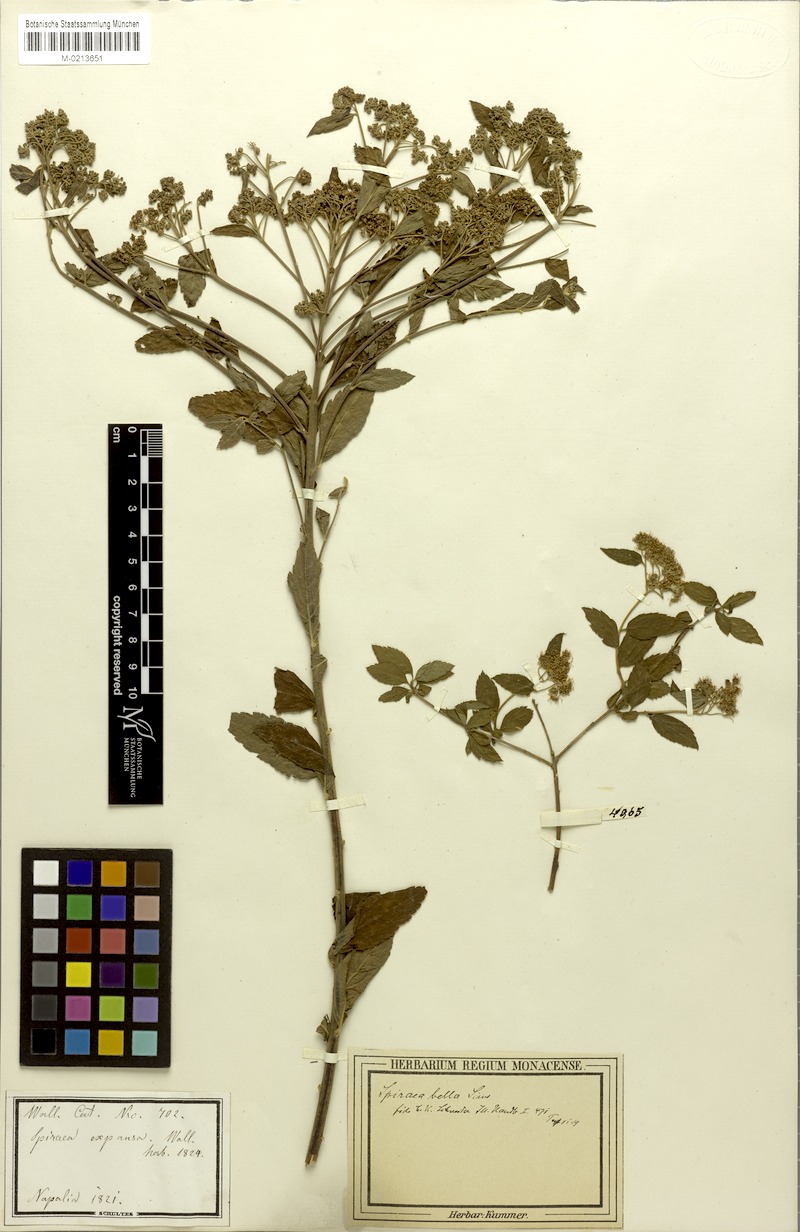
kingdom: Plantae
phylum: Tracheophyta
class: Magnoliopsida
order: Rosales
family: Rosaceae
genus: Spiraea
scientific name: Spiraea bella
